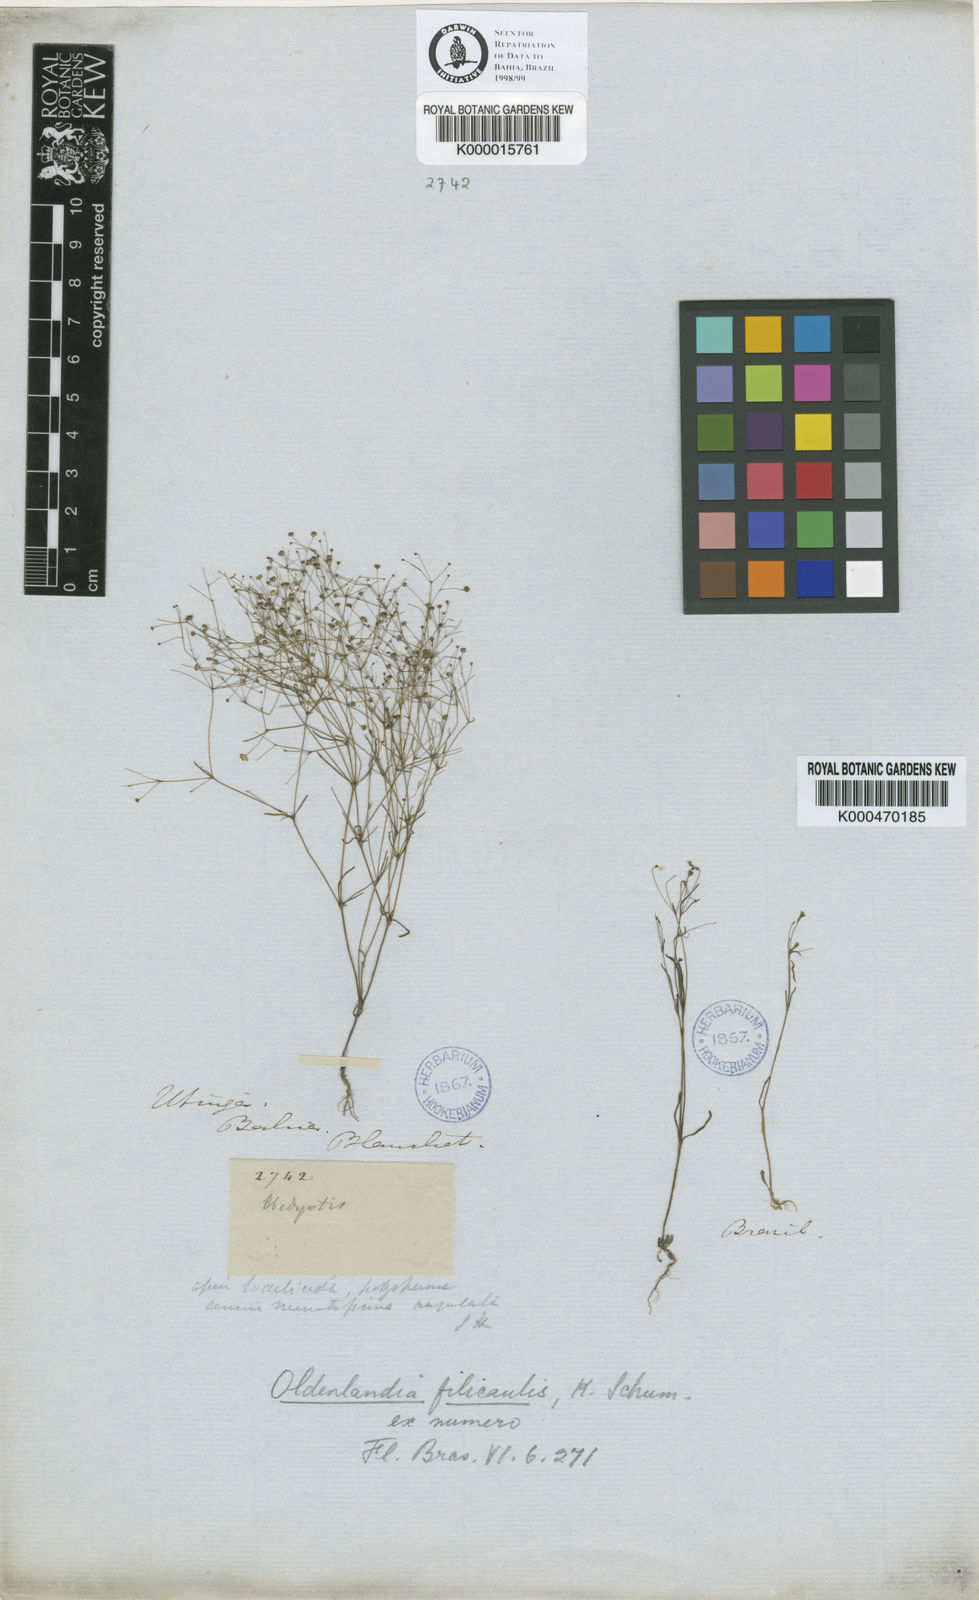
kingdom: Plantae
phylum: Tracheophyta
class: Magnoliopsida
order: Gentianales
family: Rubiaceae
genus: Oldenlandia
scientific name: Oldenlandia filicaulis
